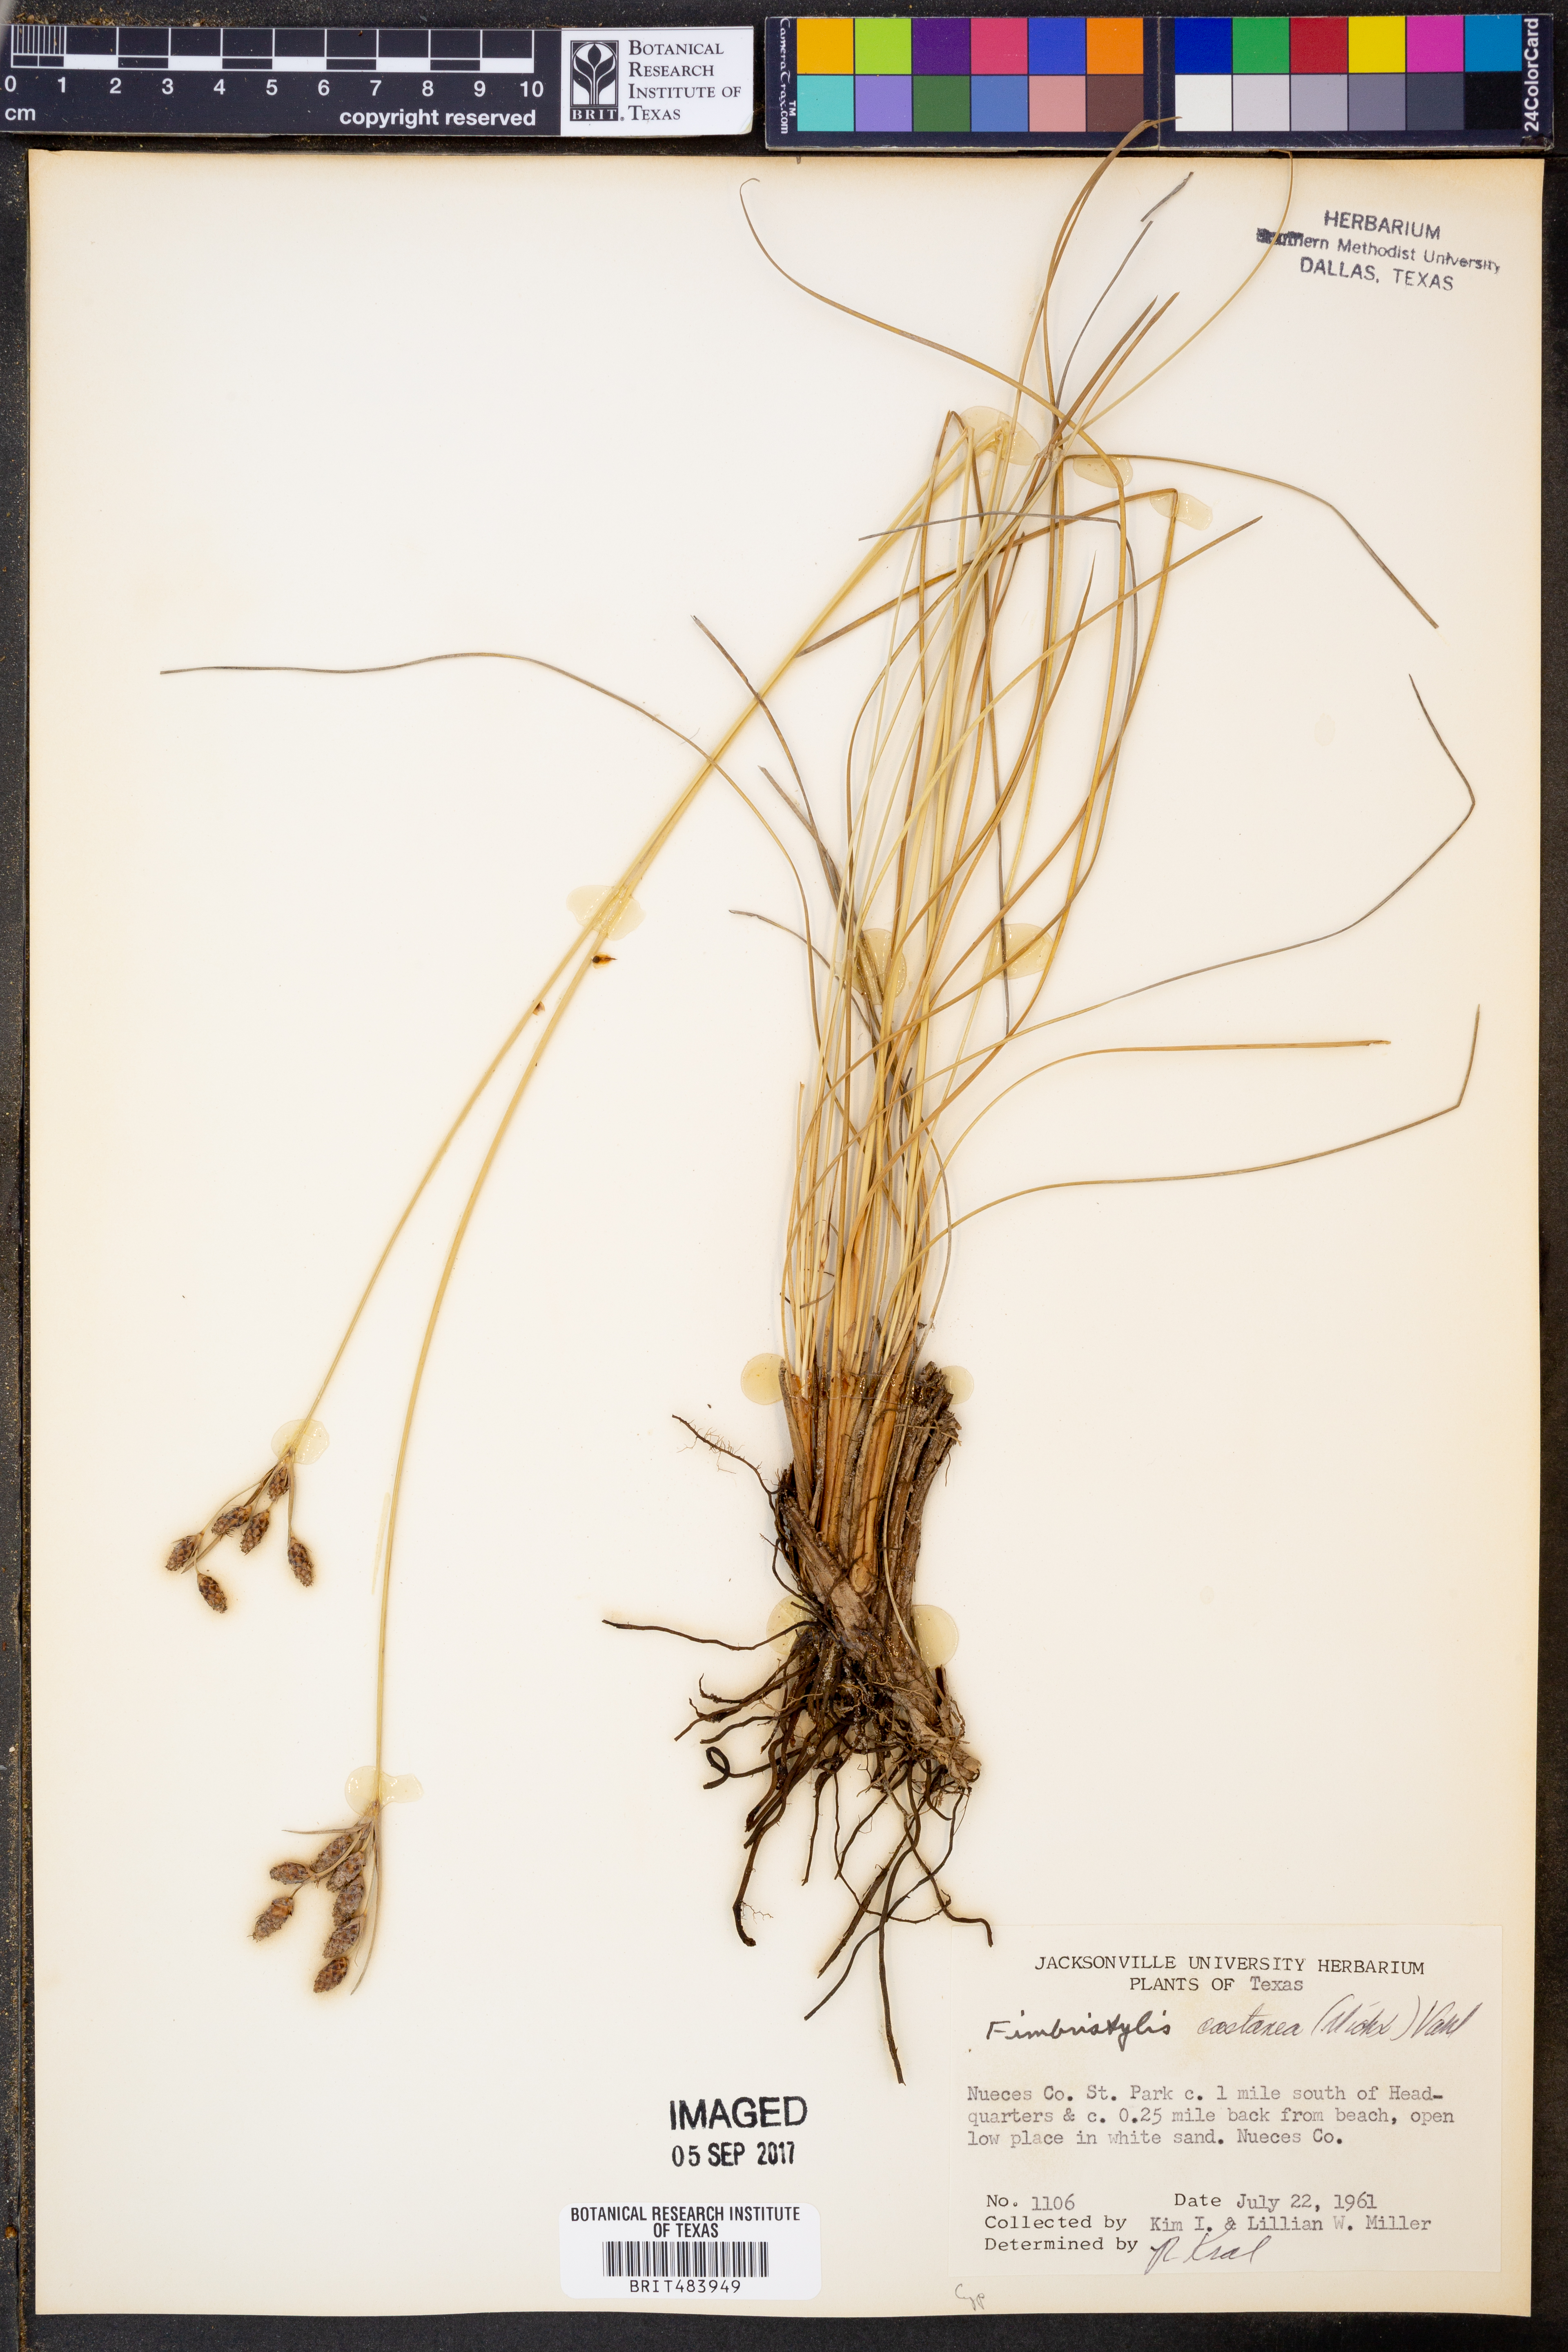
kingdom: Plantae
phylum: Tracheophyta
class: Liliopsida
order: Poales
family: Cyperaceae
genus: Fimbristylis
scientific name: Fimbristylis spadicea
